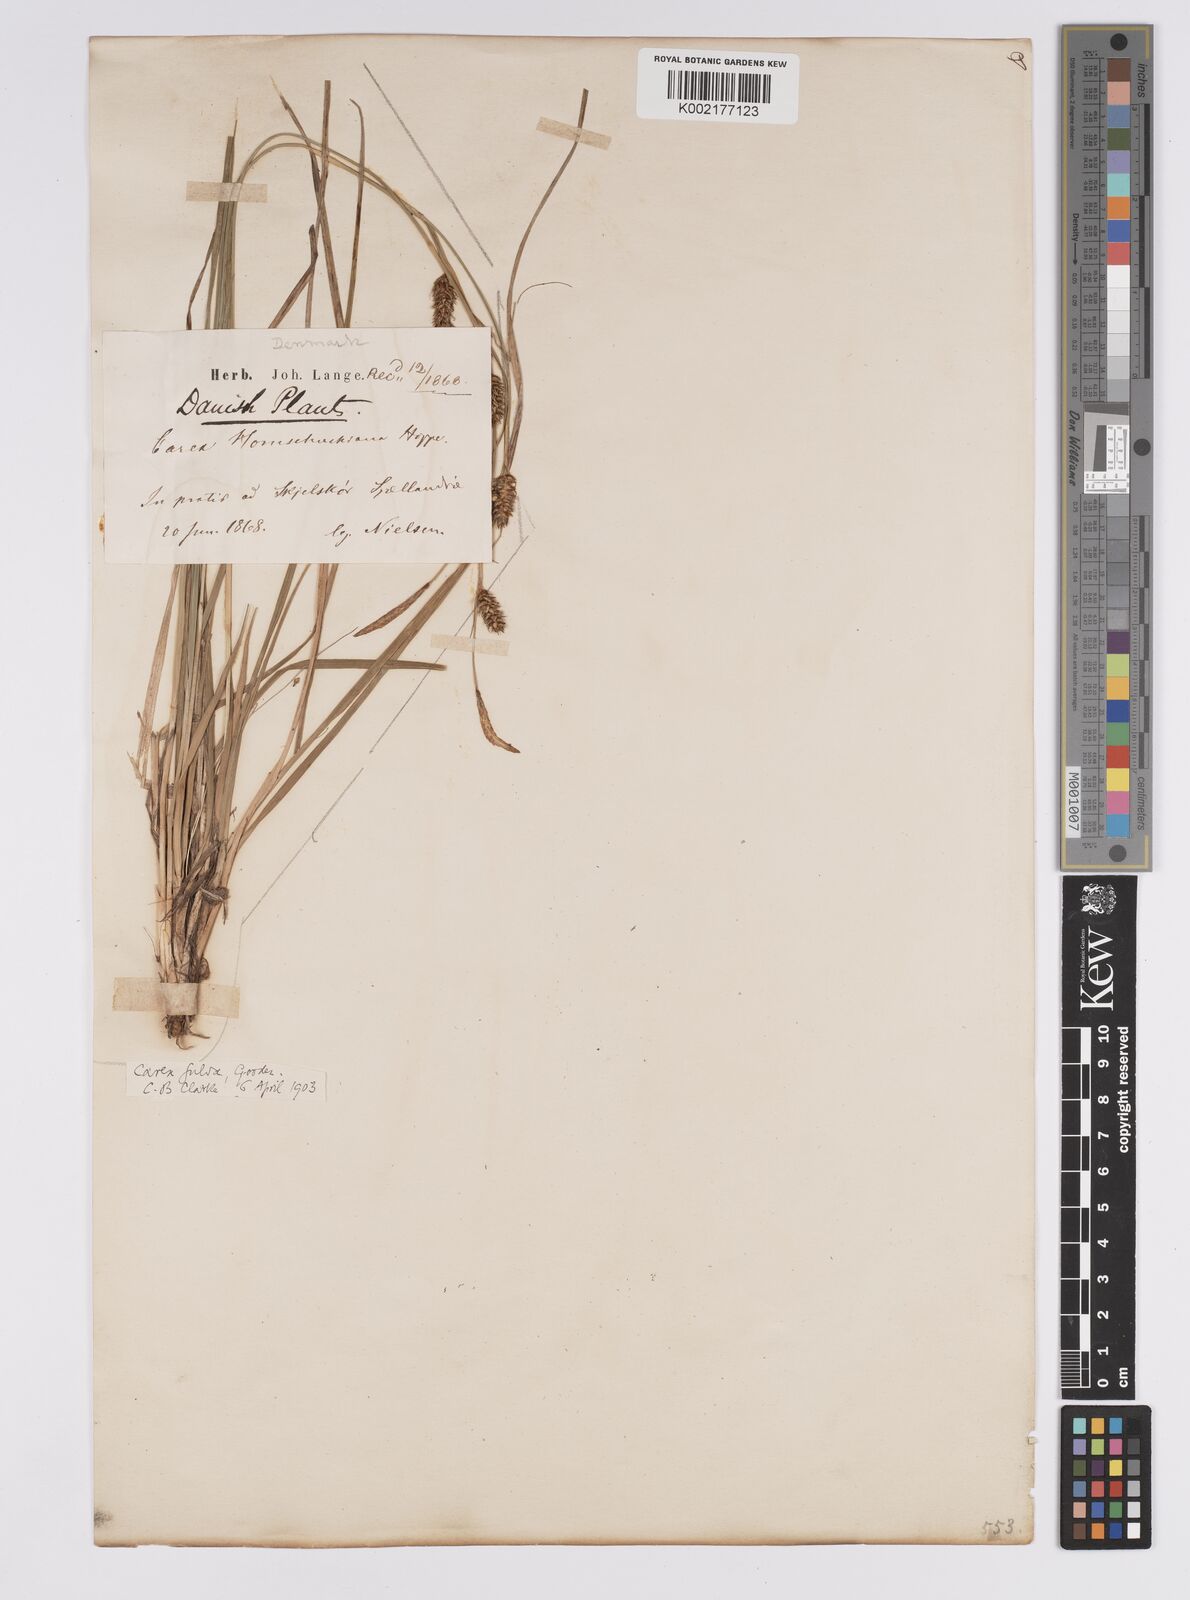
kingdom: Plantae
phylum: Tracheophyta
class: Liliopsida
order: Poales
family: Cyperaceae
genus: Carex
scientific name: Carex hostiana
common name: Tawny sedge
